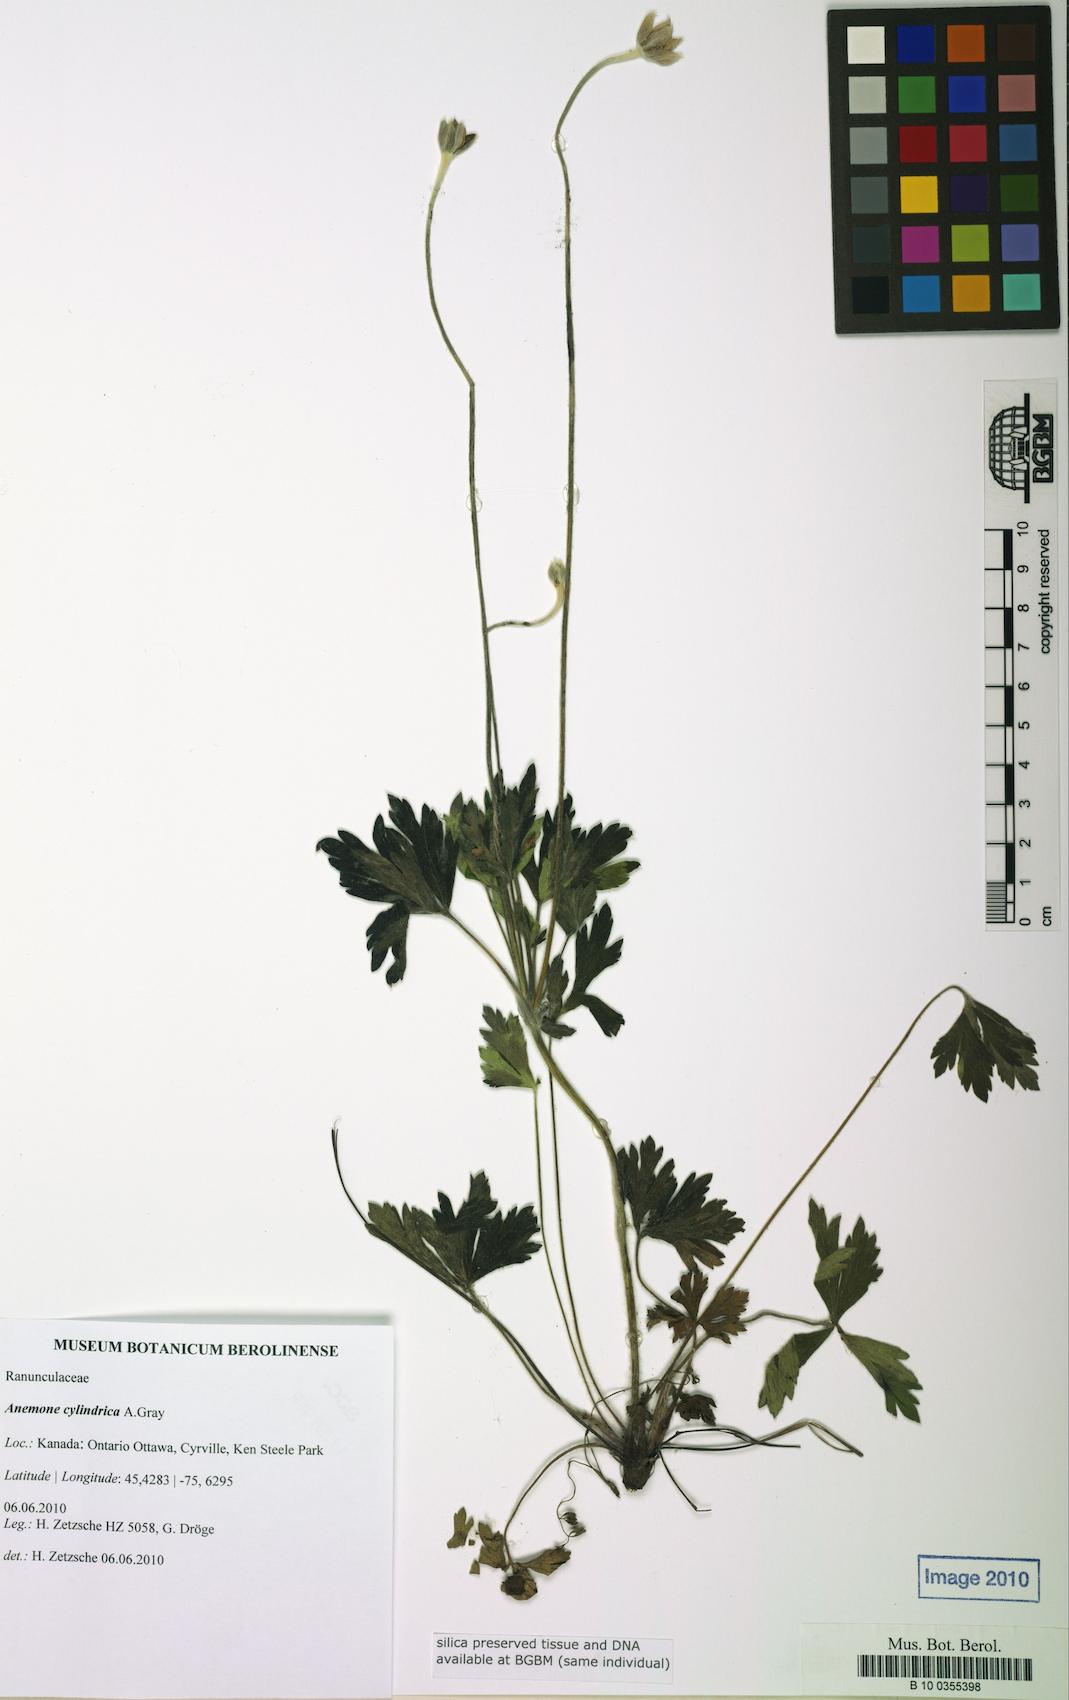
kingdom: Plantae
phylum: Tracheophyta
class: Magnoliopsida
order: Ranunculales
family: Ranunculaceae
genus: Anemone
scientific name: Anemone cylindrica
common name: Candle anemone
